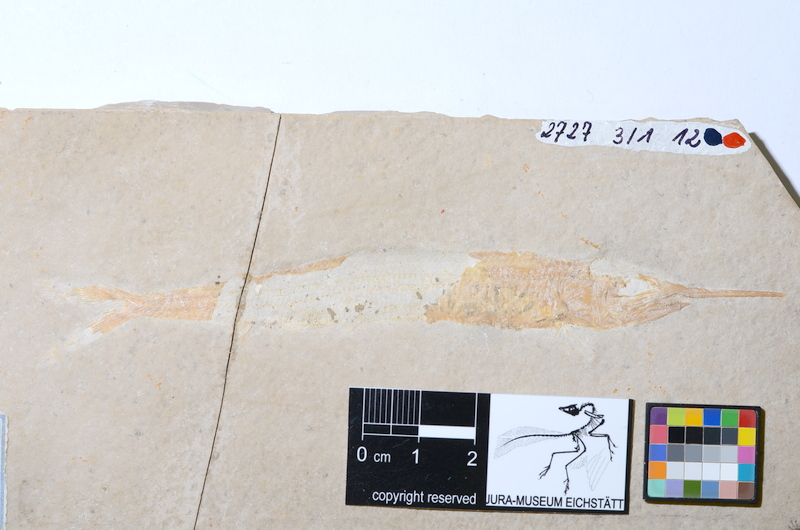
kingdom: Animalia
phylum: Chordata
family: Aspidorhynchidae
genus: Aspidorhynchus
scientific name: Aspidorhynchus acutirostris
